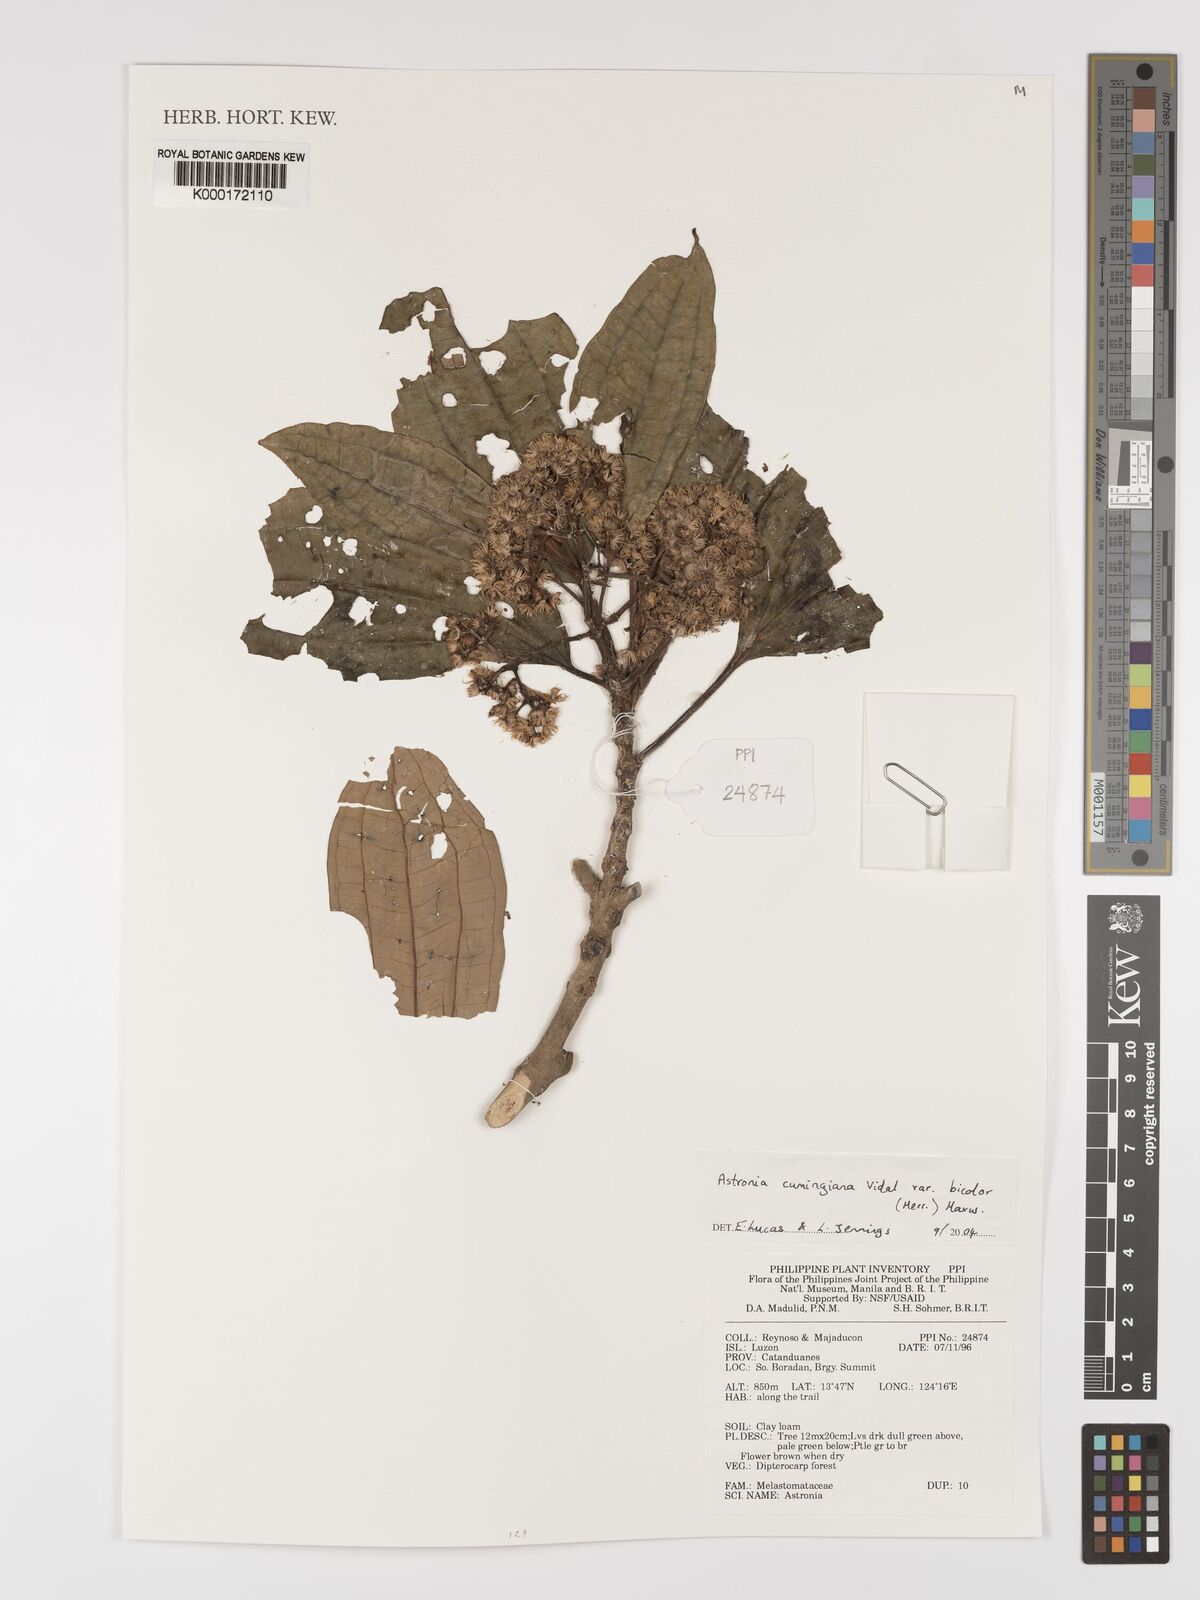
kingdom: Plantae
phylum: Tracheophyta
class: Magnoliopsida
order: Myrtales
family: Melastomataceae
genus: Astronia
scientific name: Astronia cumingiana
